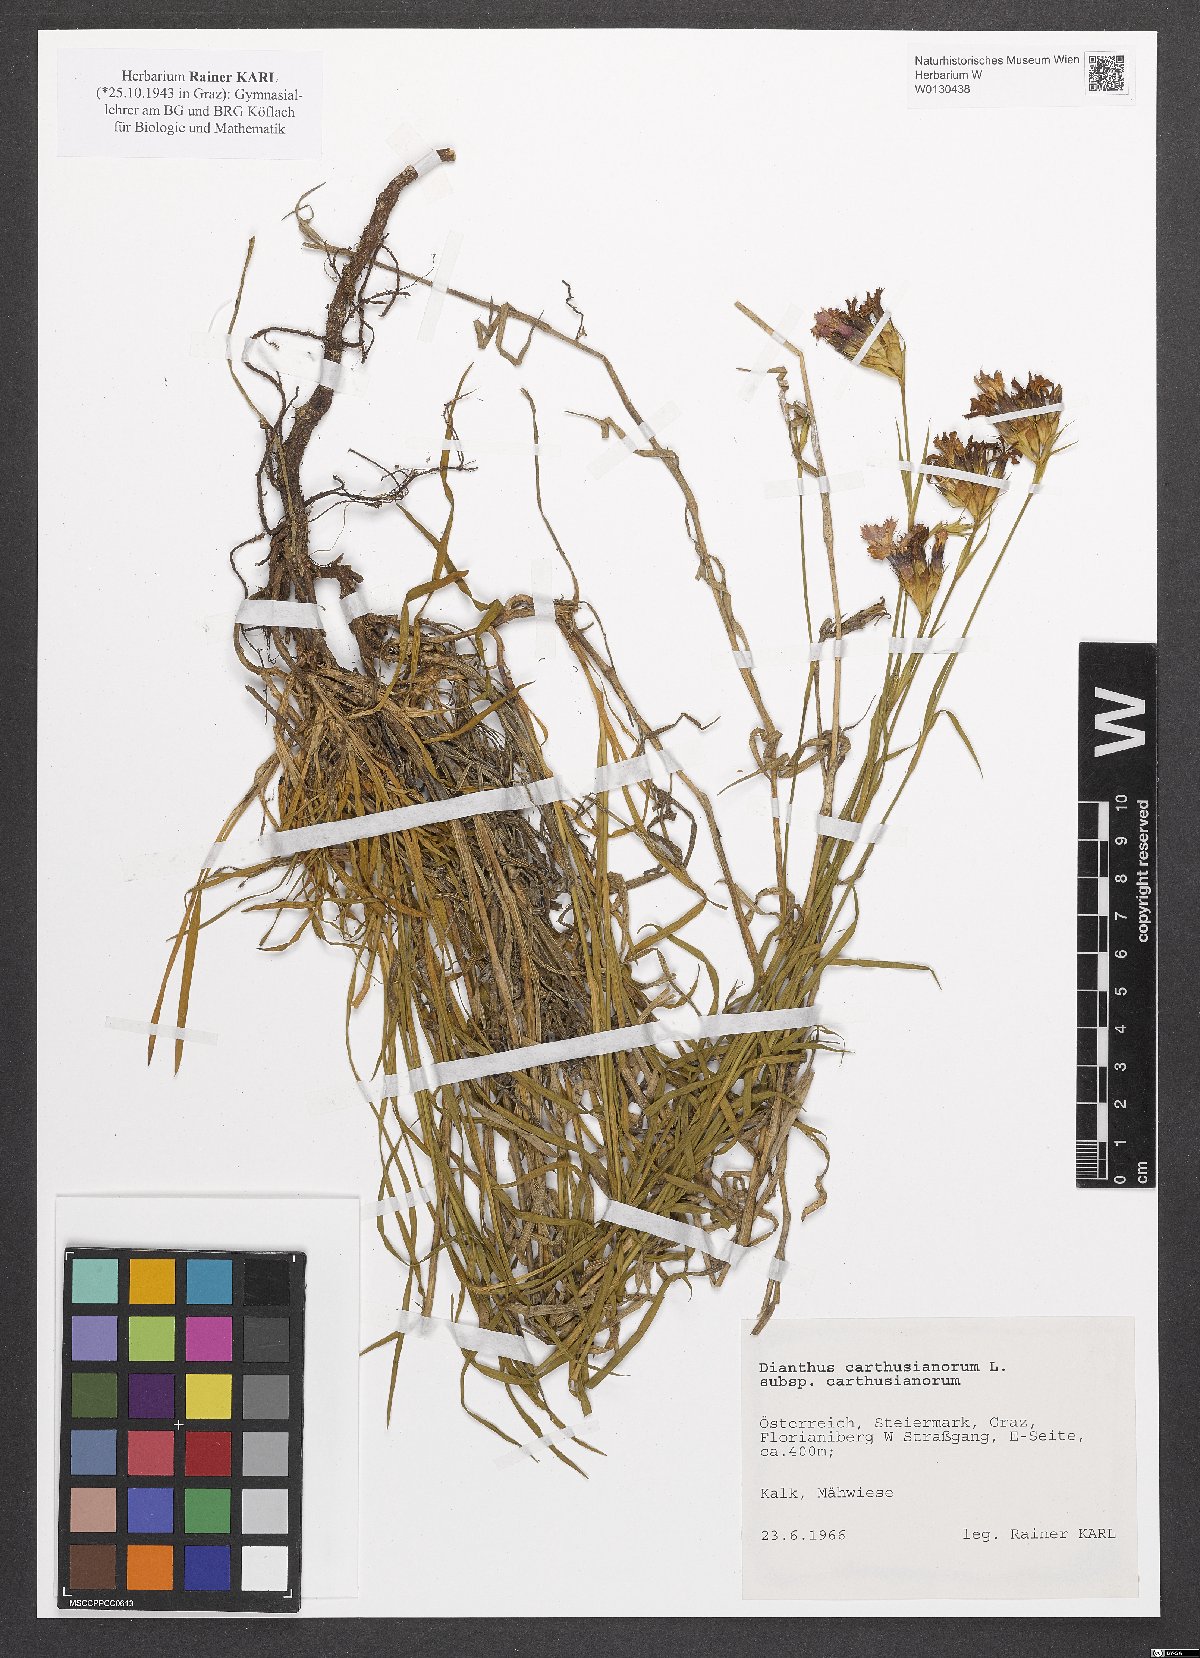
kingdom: Plantae
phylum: Tracheophyta
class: Magnoliopsida
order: Caryophyllales
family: Caryophyllaceae
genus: Dianthus
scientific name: Dianthus carthusianorum
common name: Carthusian pink
